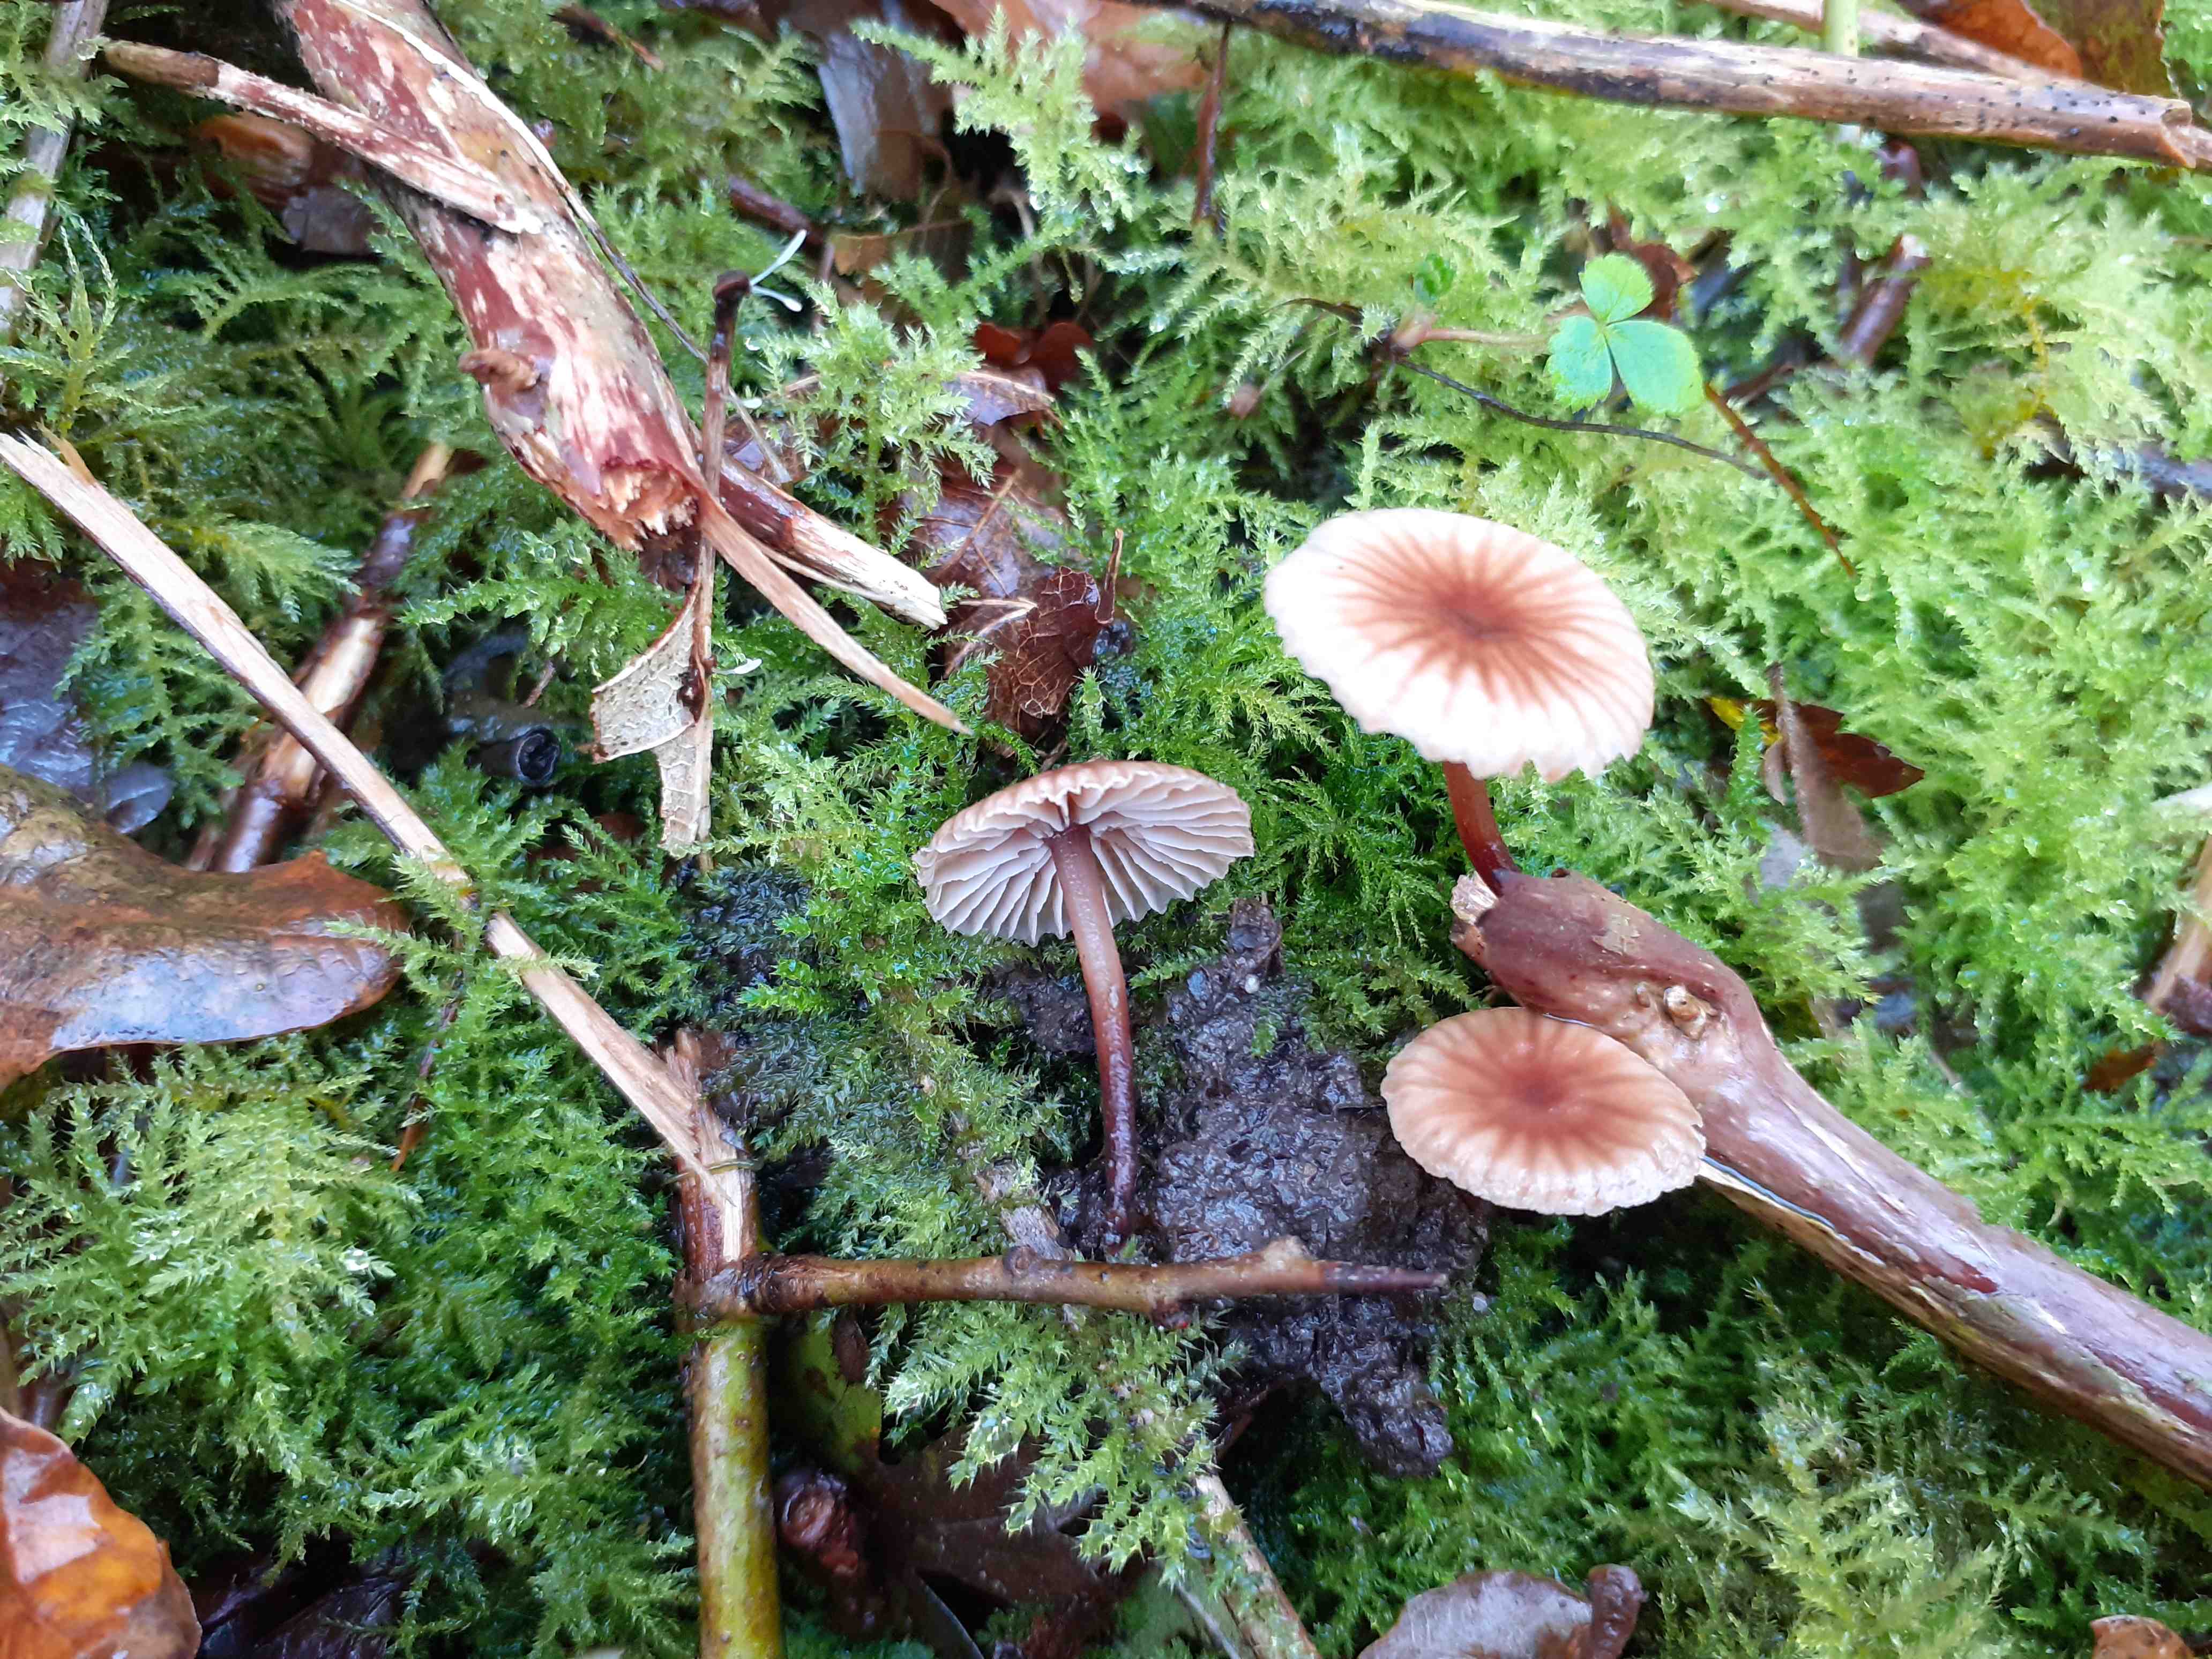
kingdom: Fungi
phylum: Basidiomycota
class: Agaricomycetes
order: Agaricales
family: Omphalotaceae
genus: Gymnopus
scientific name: Gymnopus foetidus
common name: stinkende fladhat
